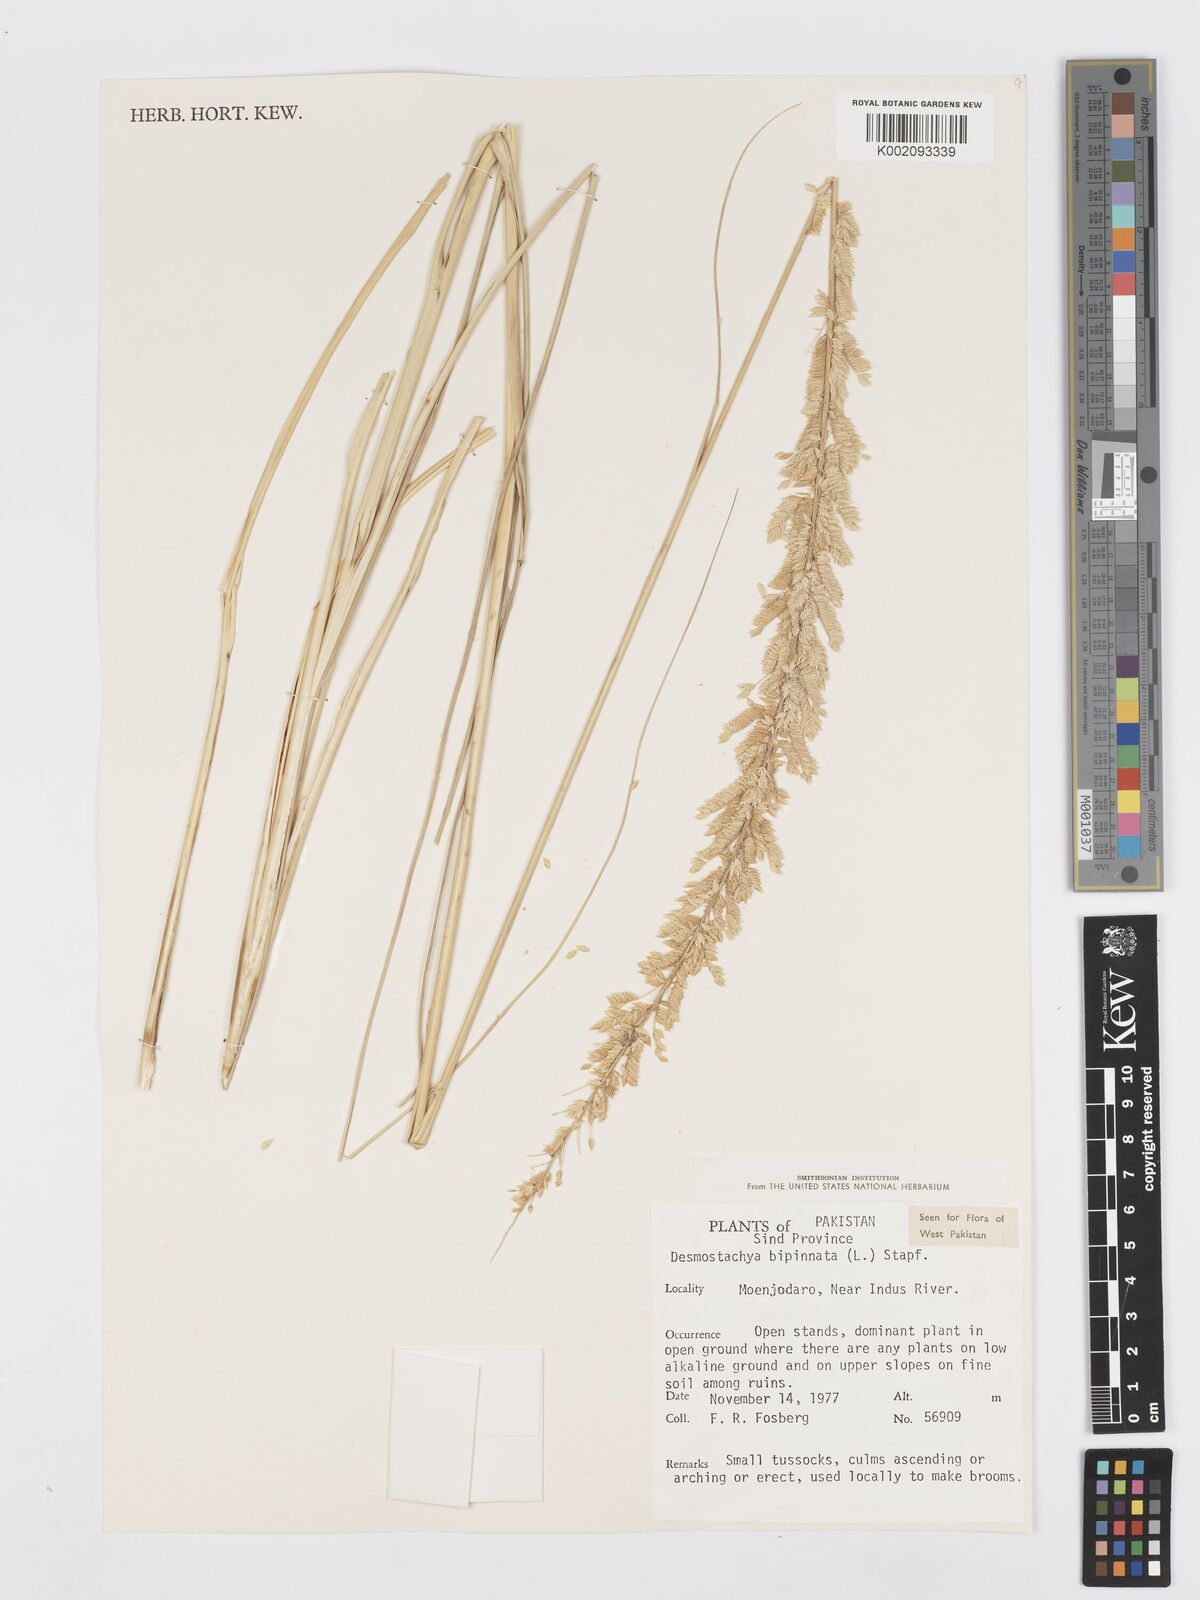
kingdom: Plantae
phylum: Tracheophyta
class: Liliopsida
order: Poales
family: Poaceae
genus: Desmostachya
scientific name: Desmostachya bipinnata
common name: Crowfoot grass
